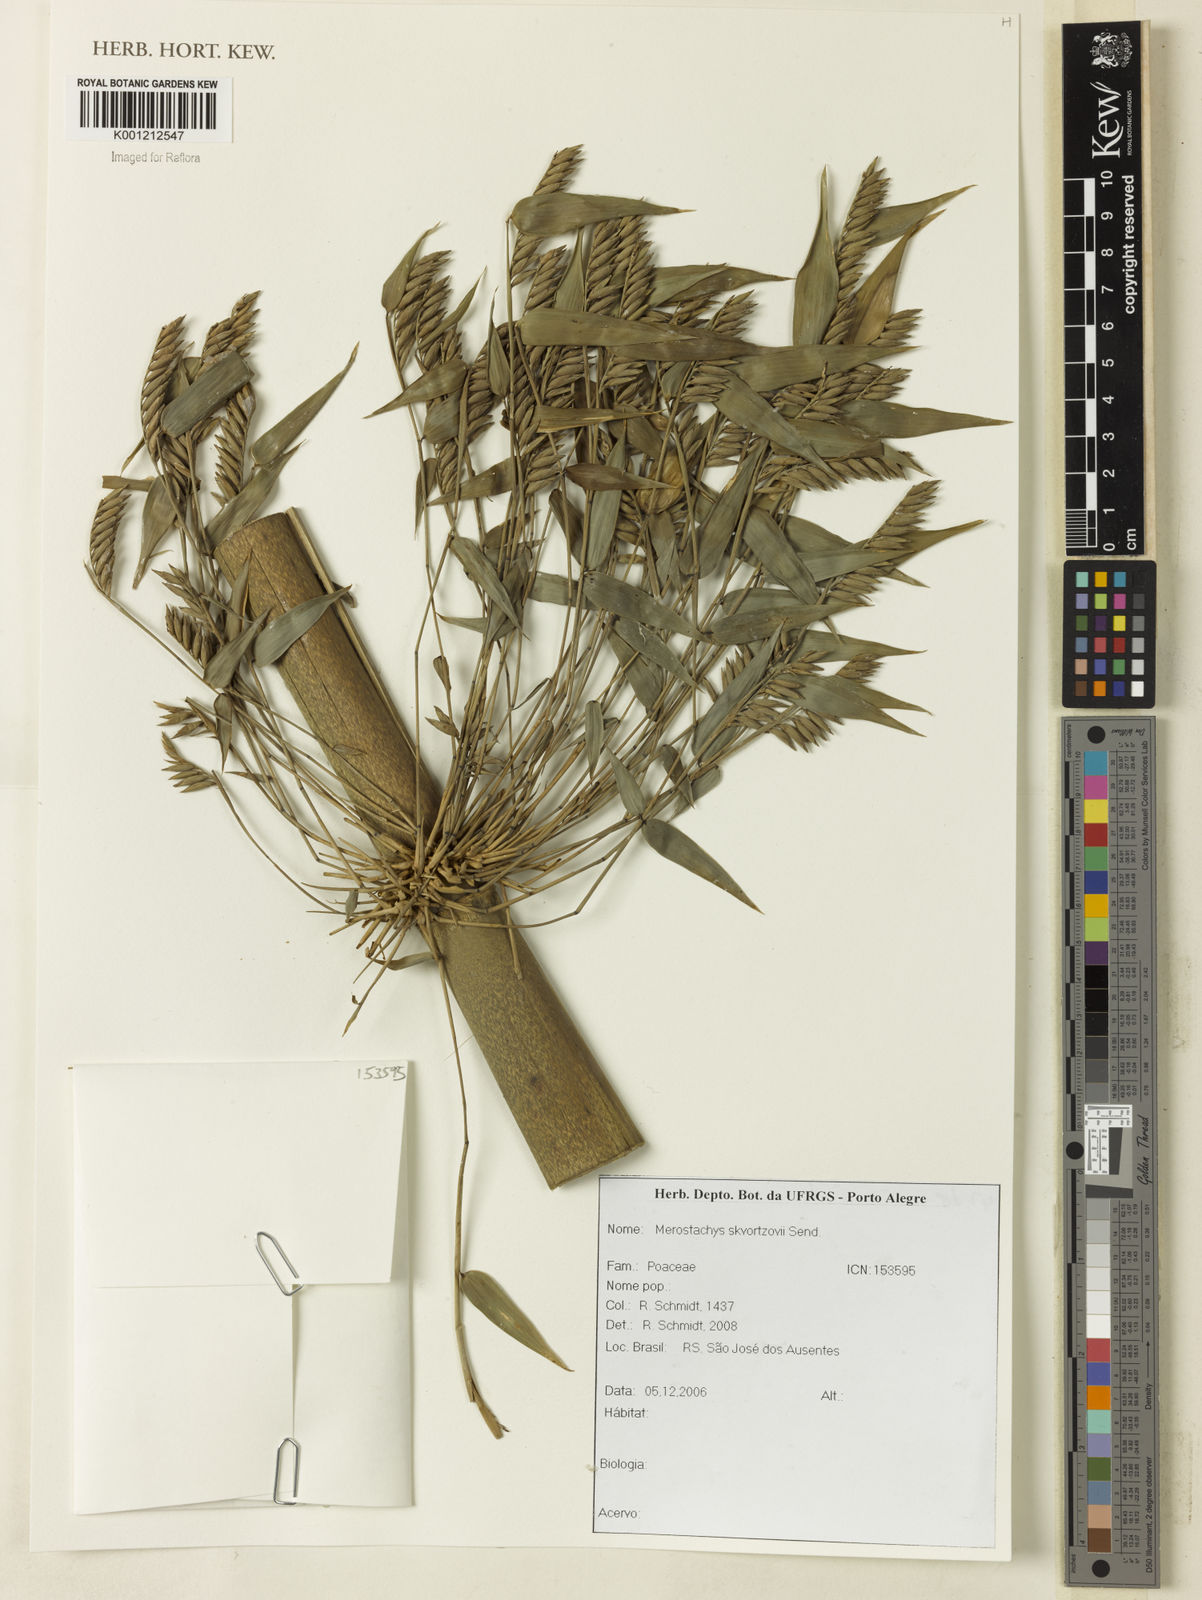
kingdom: Plantae
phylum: Tracheophyta
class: Liliopsida
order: Poales
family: Poaceae
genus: Merostachys
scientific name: Merostachys skvortzovii
